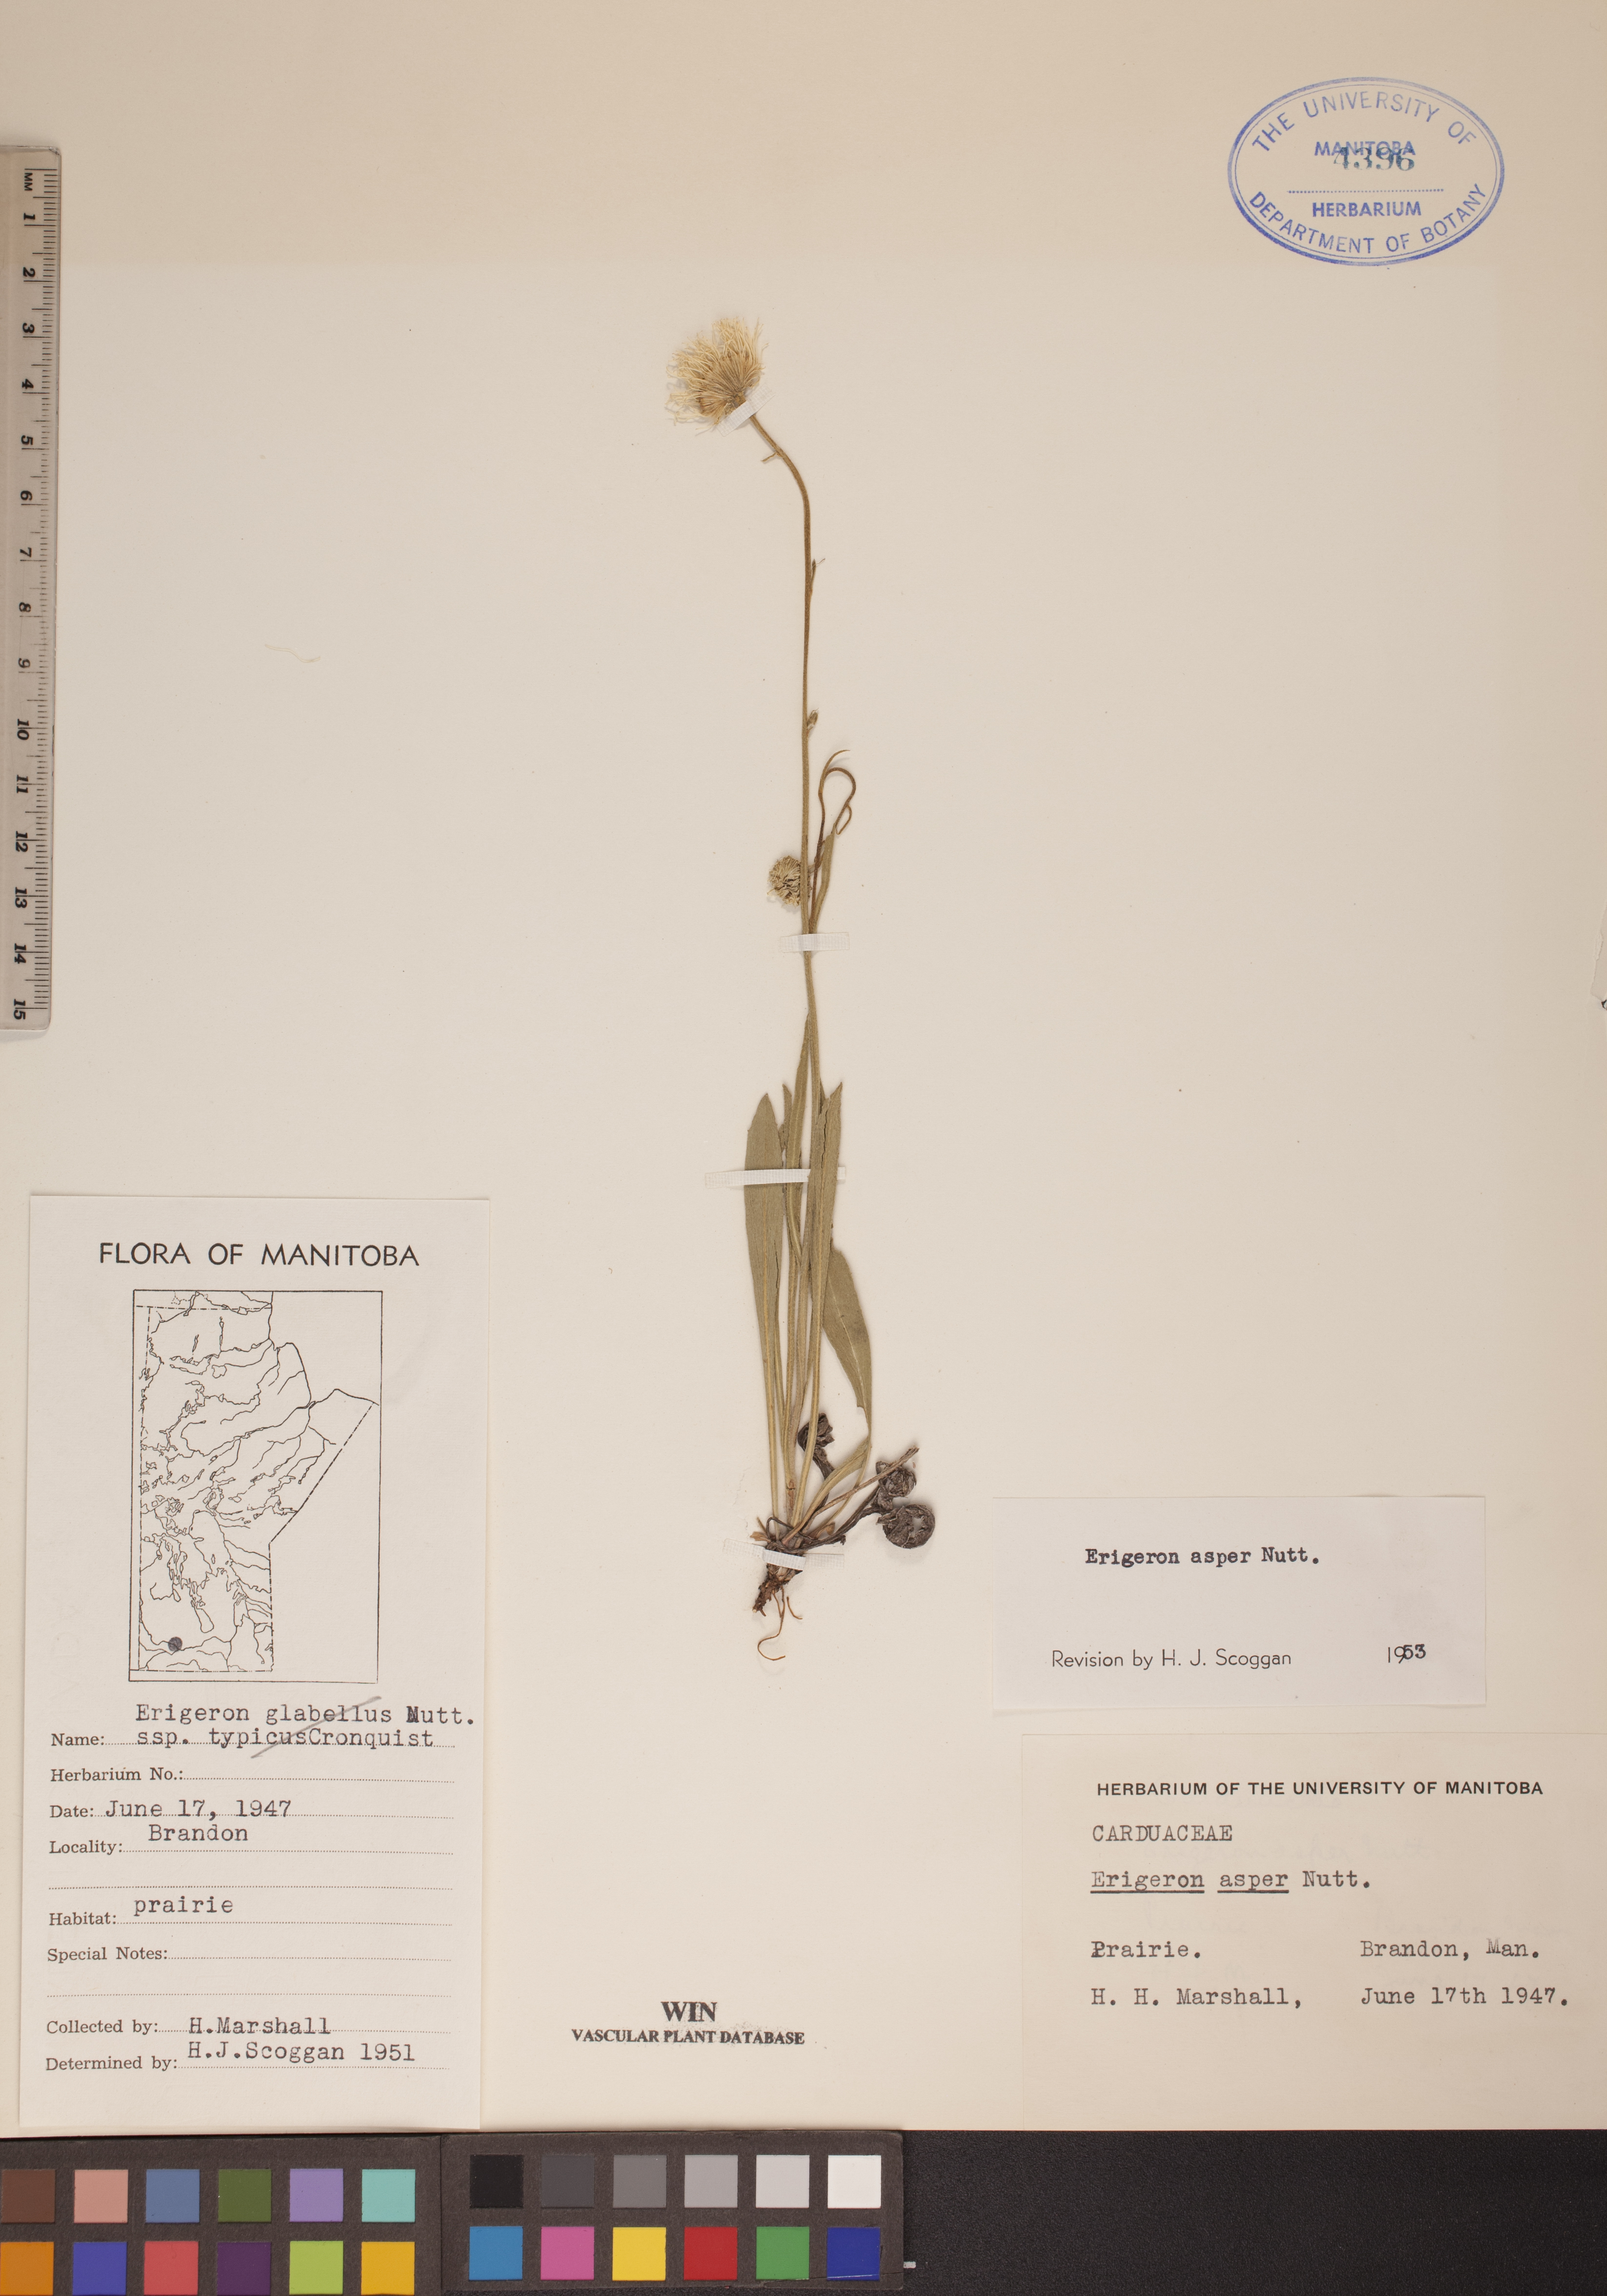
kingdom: Plantae
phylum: Tracheophyta
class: Magnoliopsida
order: Asterales
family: Asteraceae
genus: Erigeron
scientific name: Erigeron glabellus
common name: Smooth fleabane
